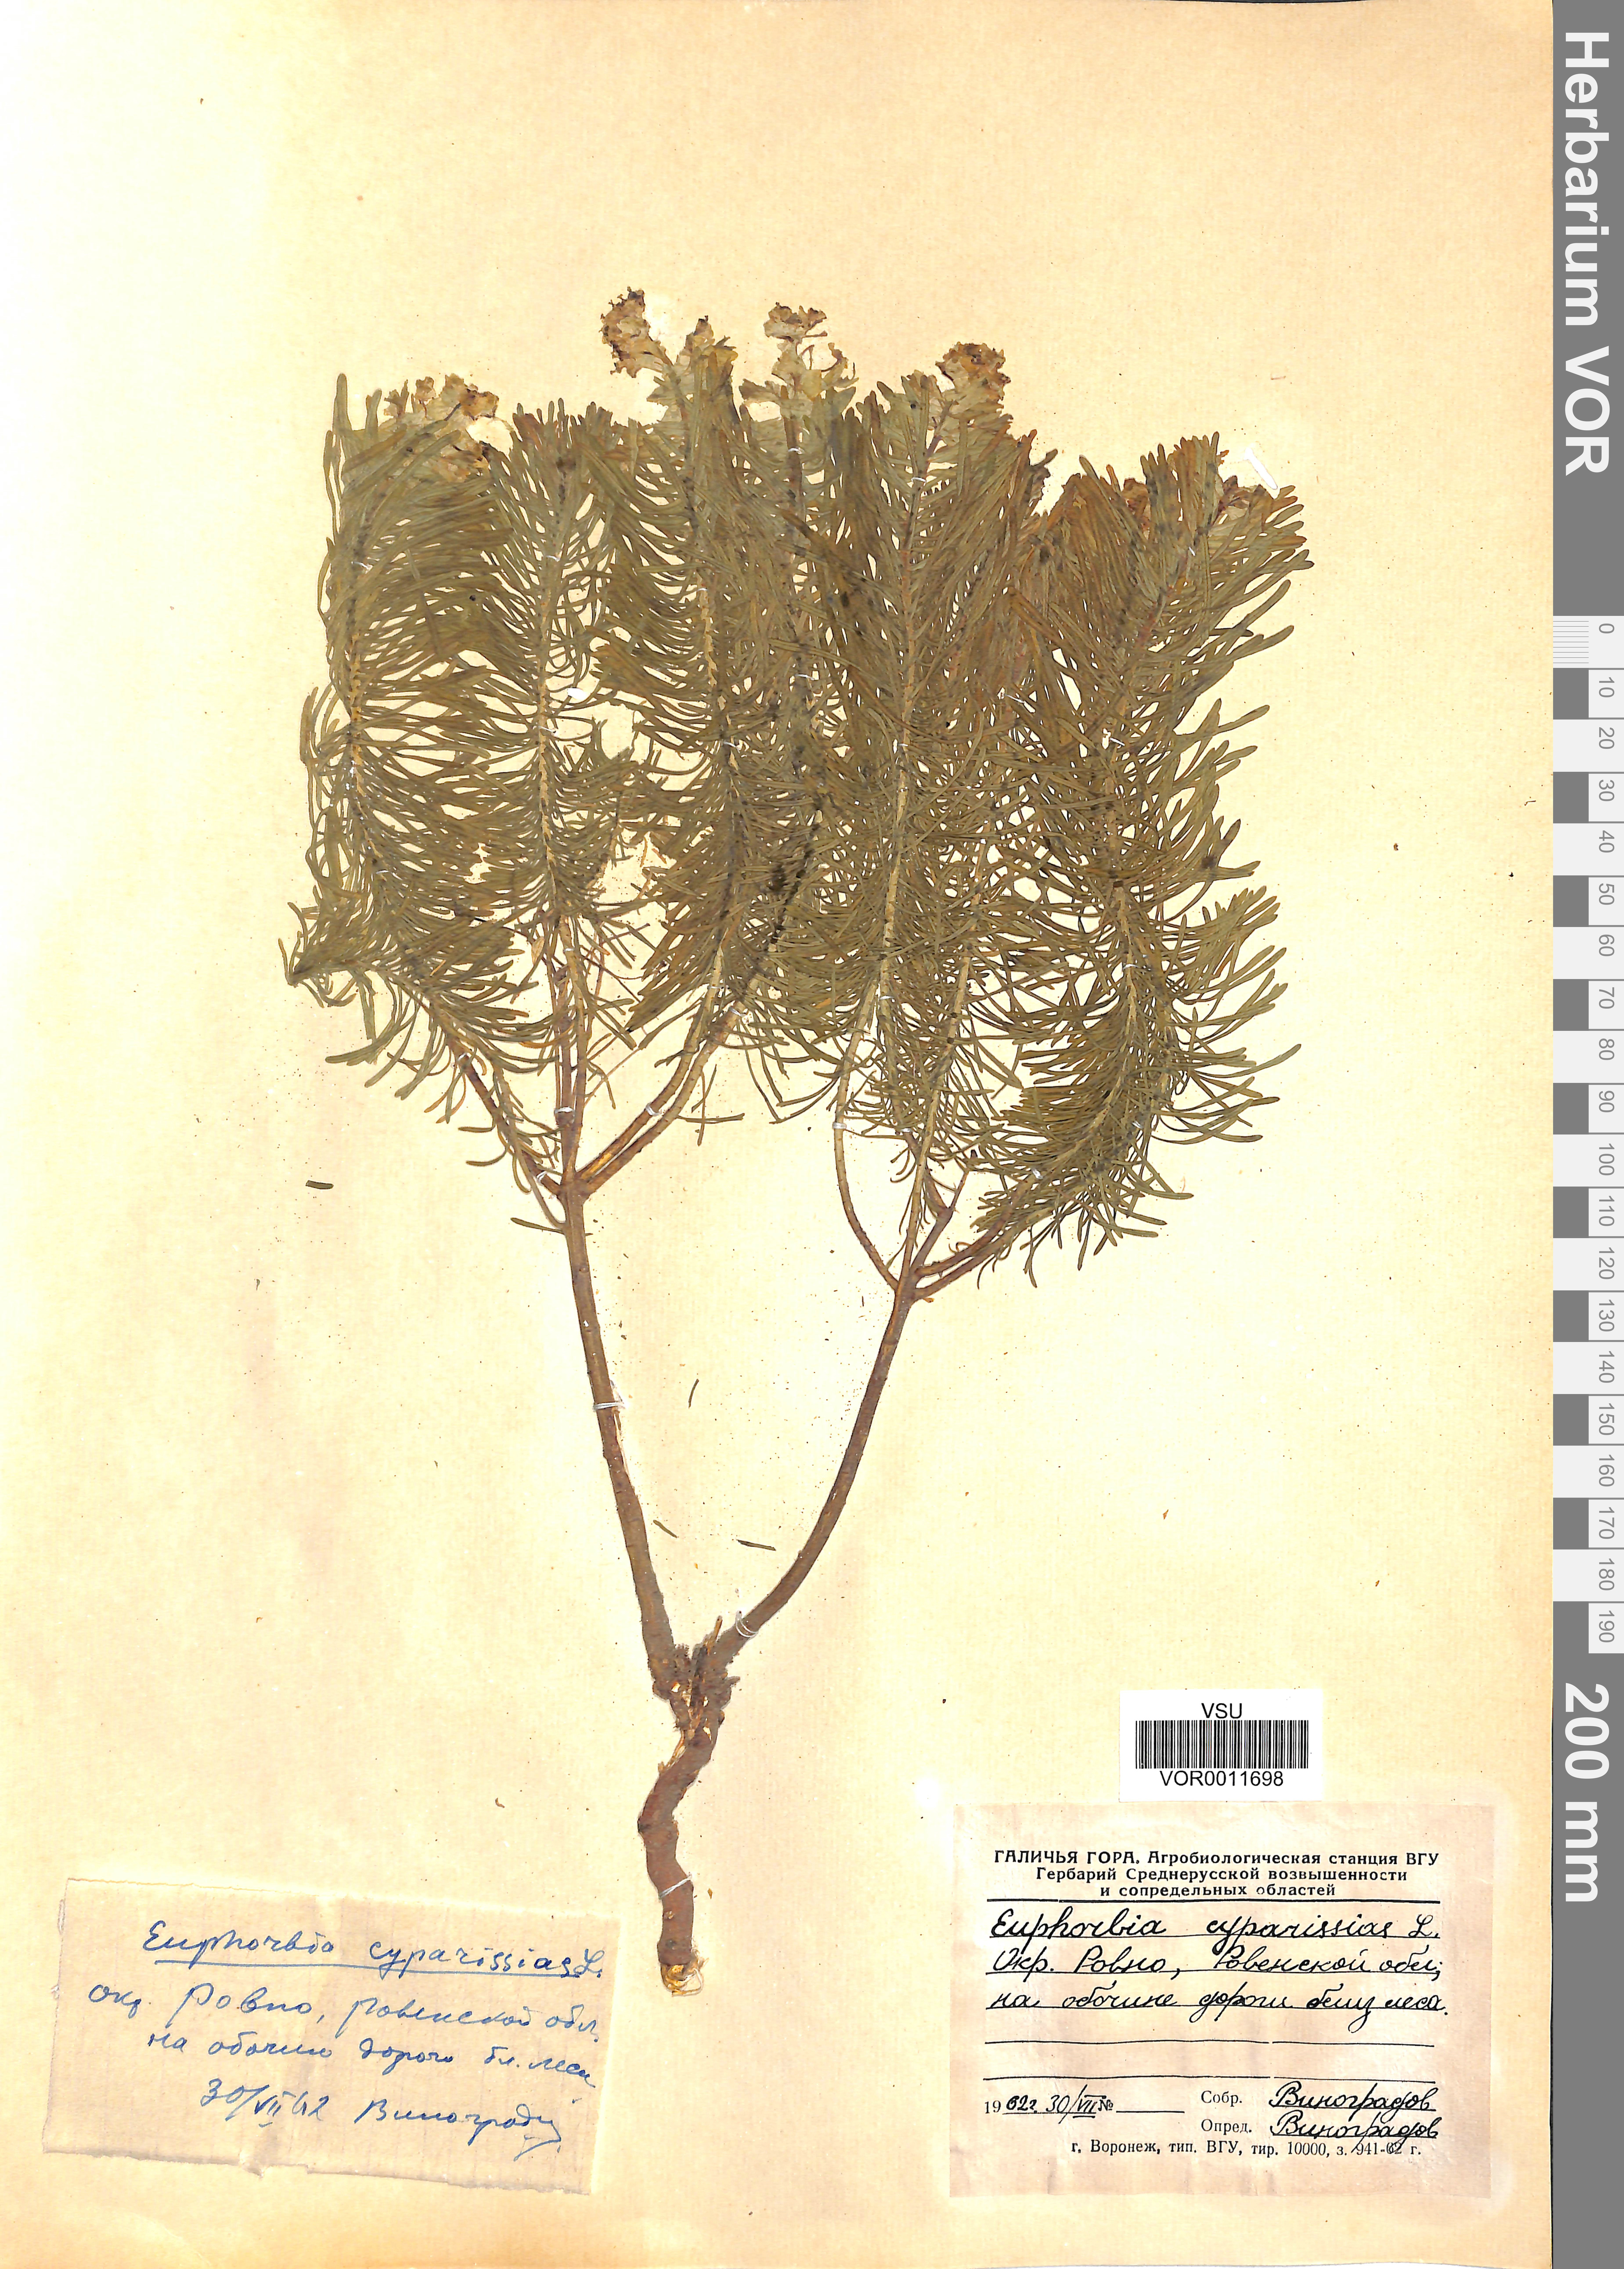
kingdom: Plantae
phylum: Tracheophyta
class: Magnoliopsida
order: Malpighiales
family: Euphorbiaceae
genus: Euphorbia
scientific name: Euphorbia cyparissias
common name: Cypress spurge
